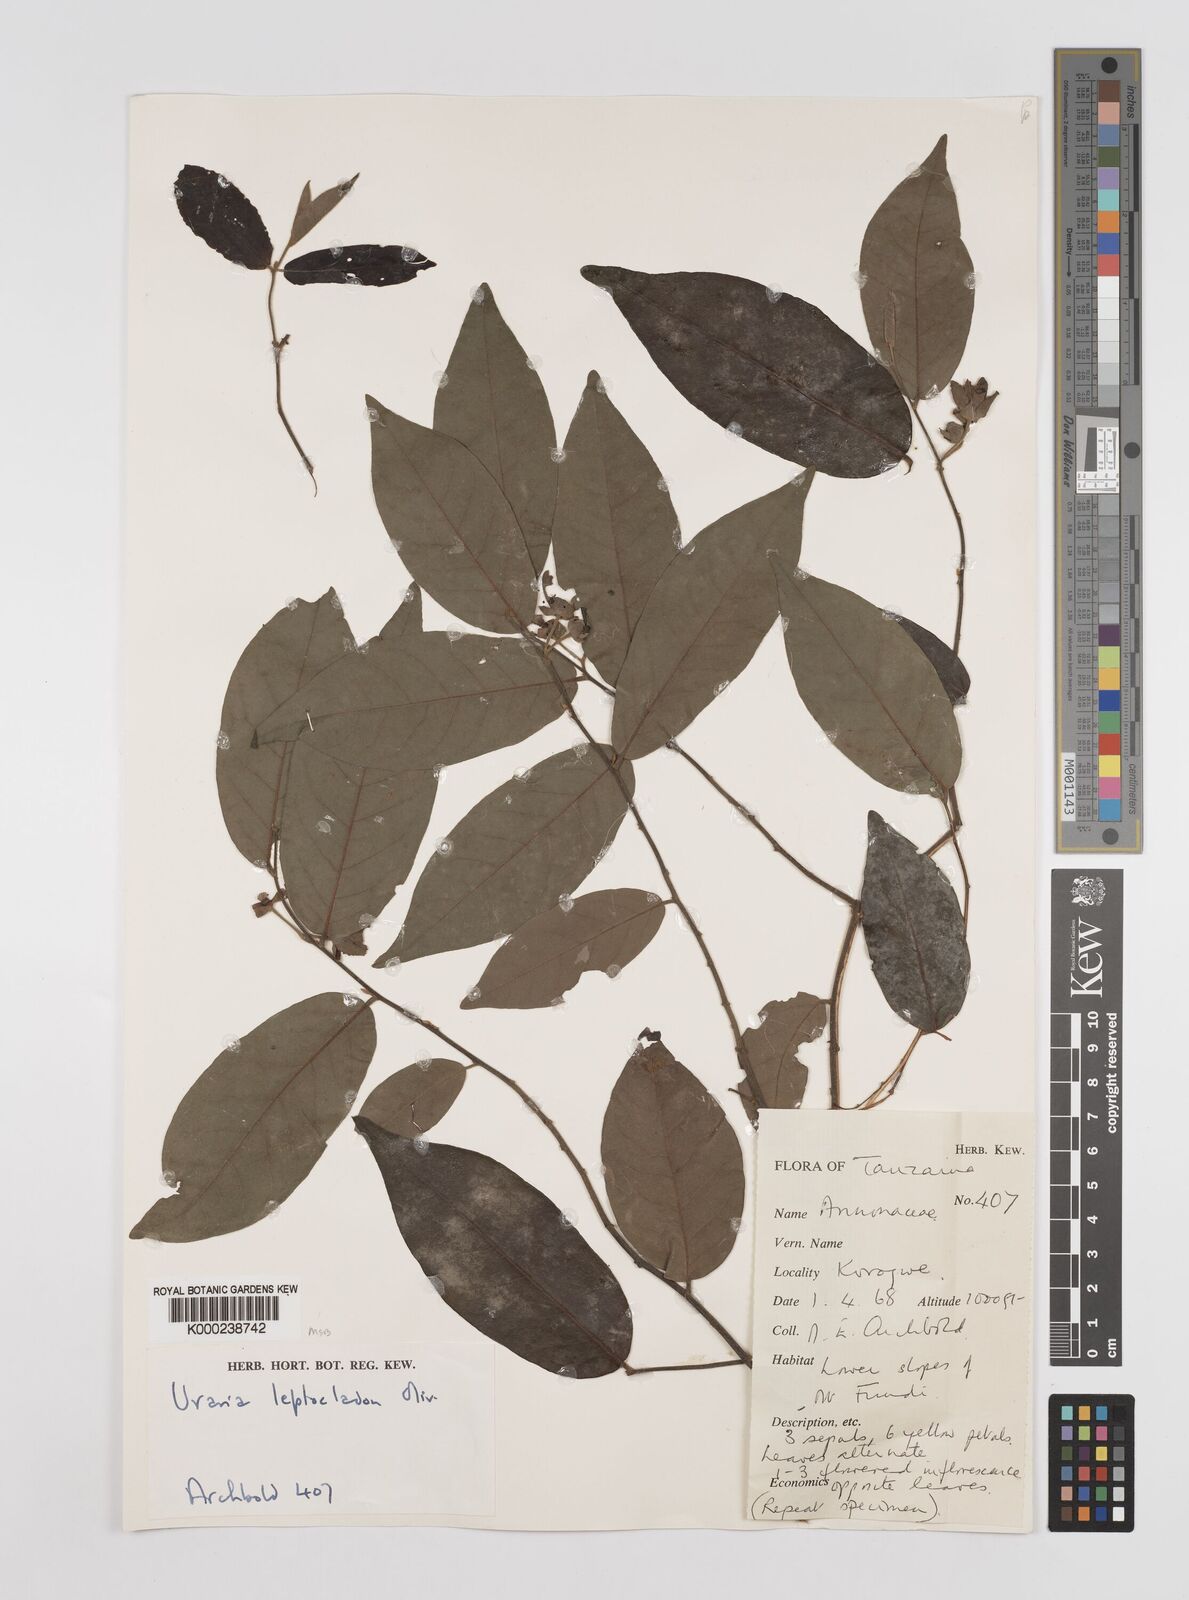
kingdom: Plantae
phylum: Tracheophyta
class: Magnoliopsida
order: Magnoliales
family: Annonaceae
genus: Uvaria
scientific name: Uvaria leptocladon
